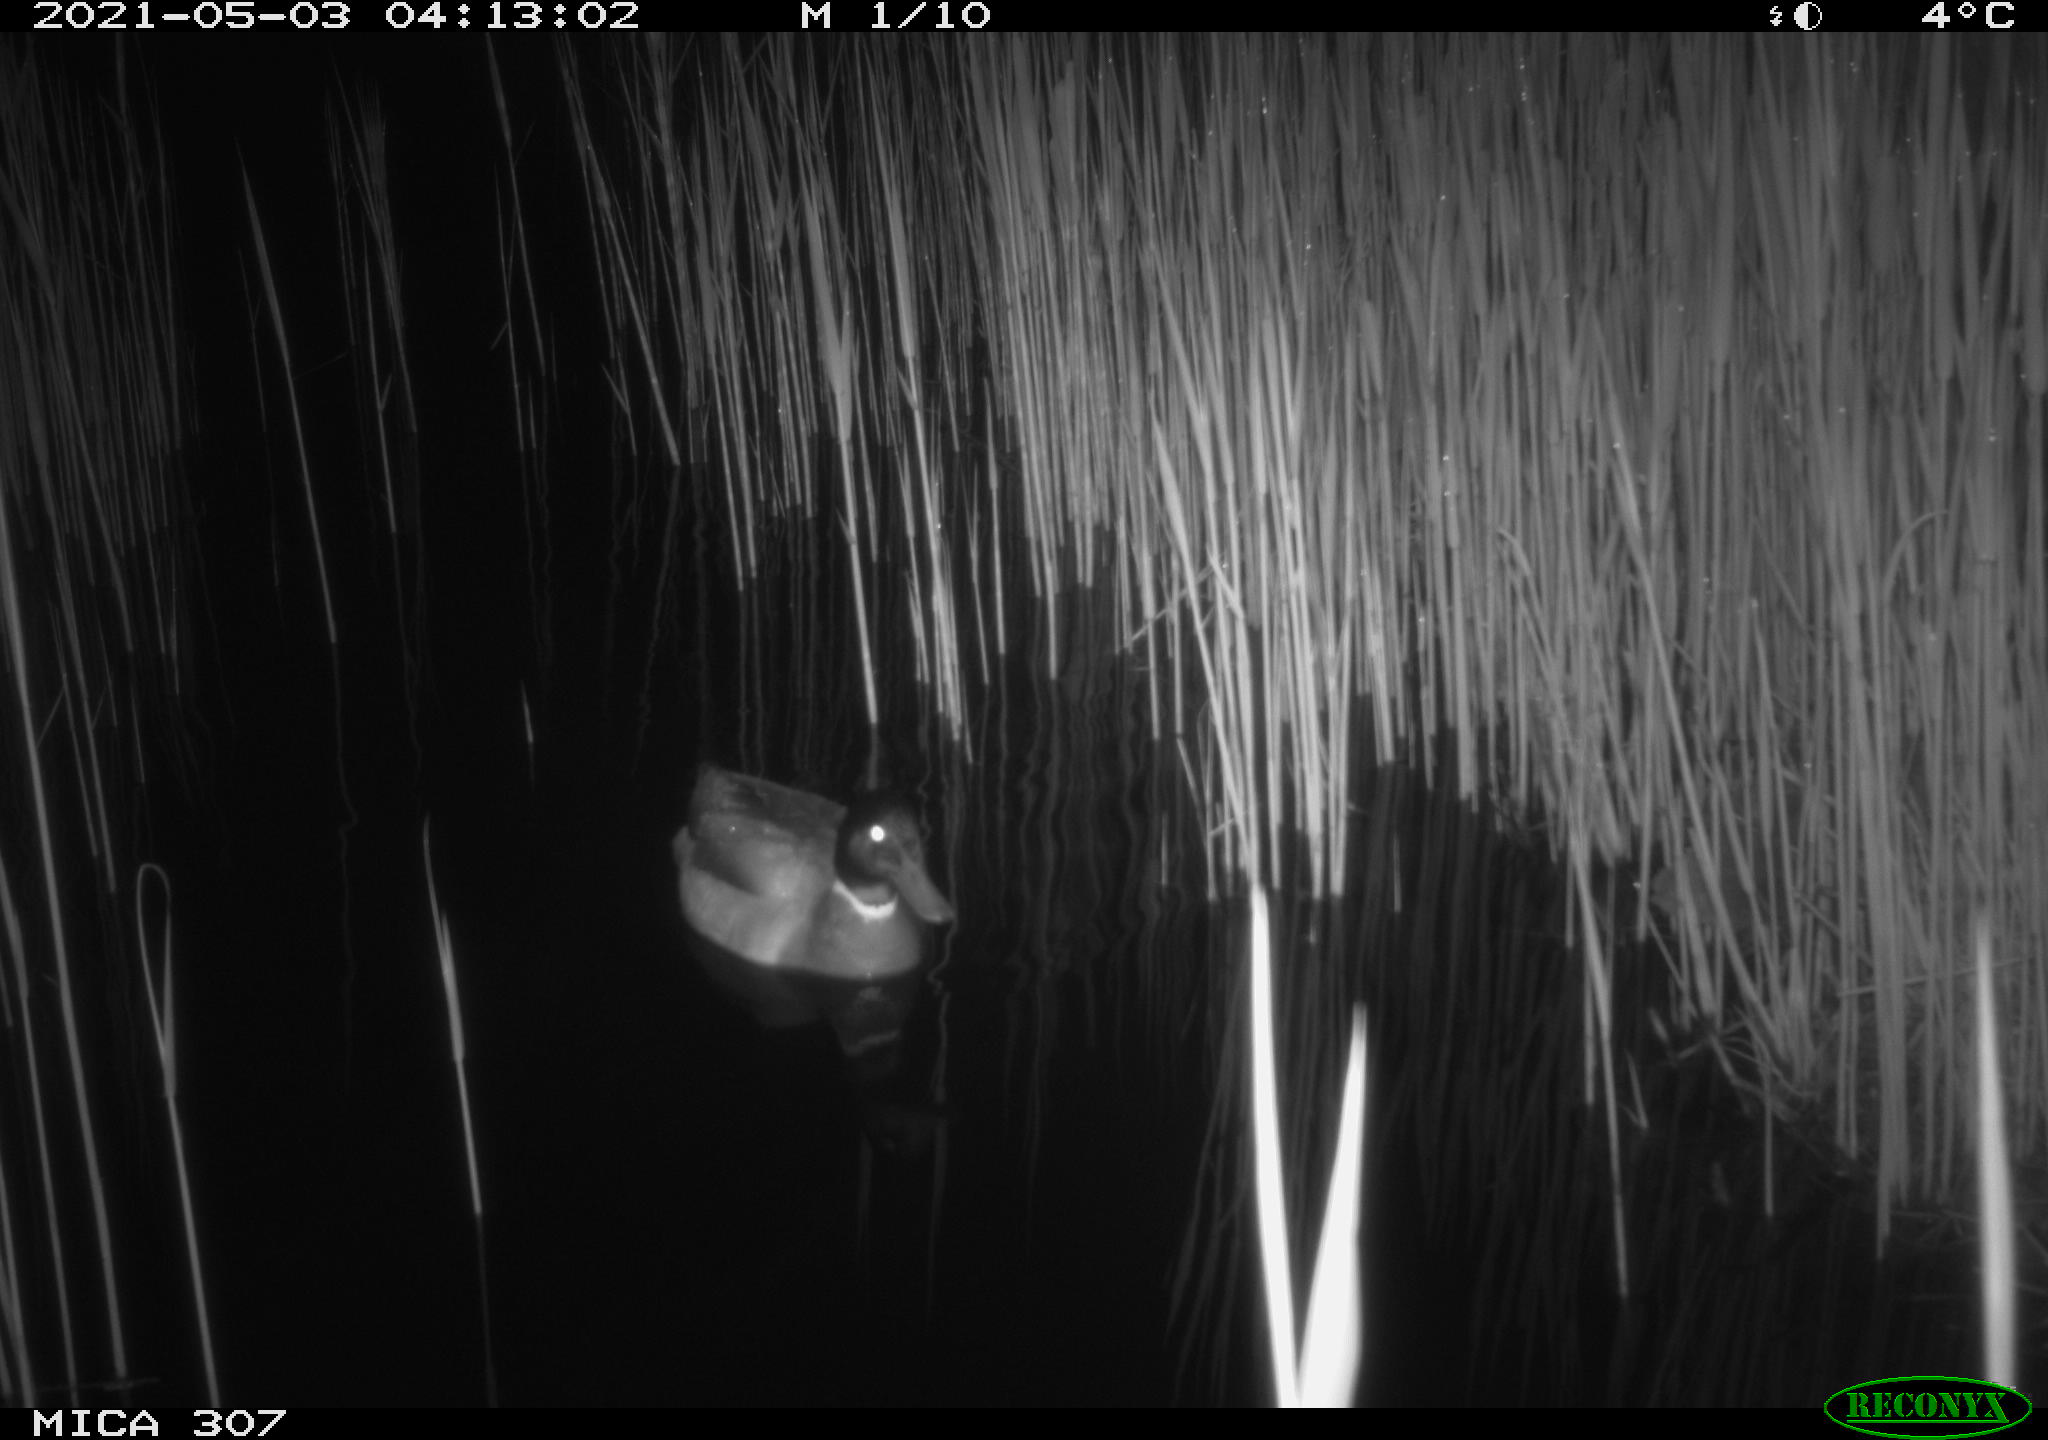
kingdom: Animalia
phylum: Chordata
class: Aves
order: Anseriformes
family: Anatidae
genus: Anas
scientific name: Anas platyrhynchos
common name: Mallard
